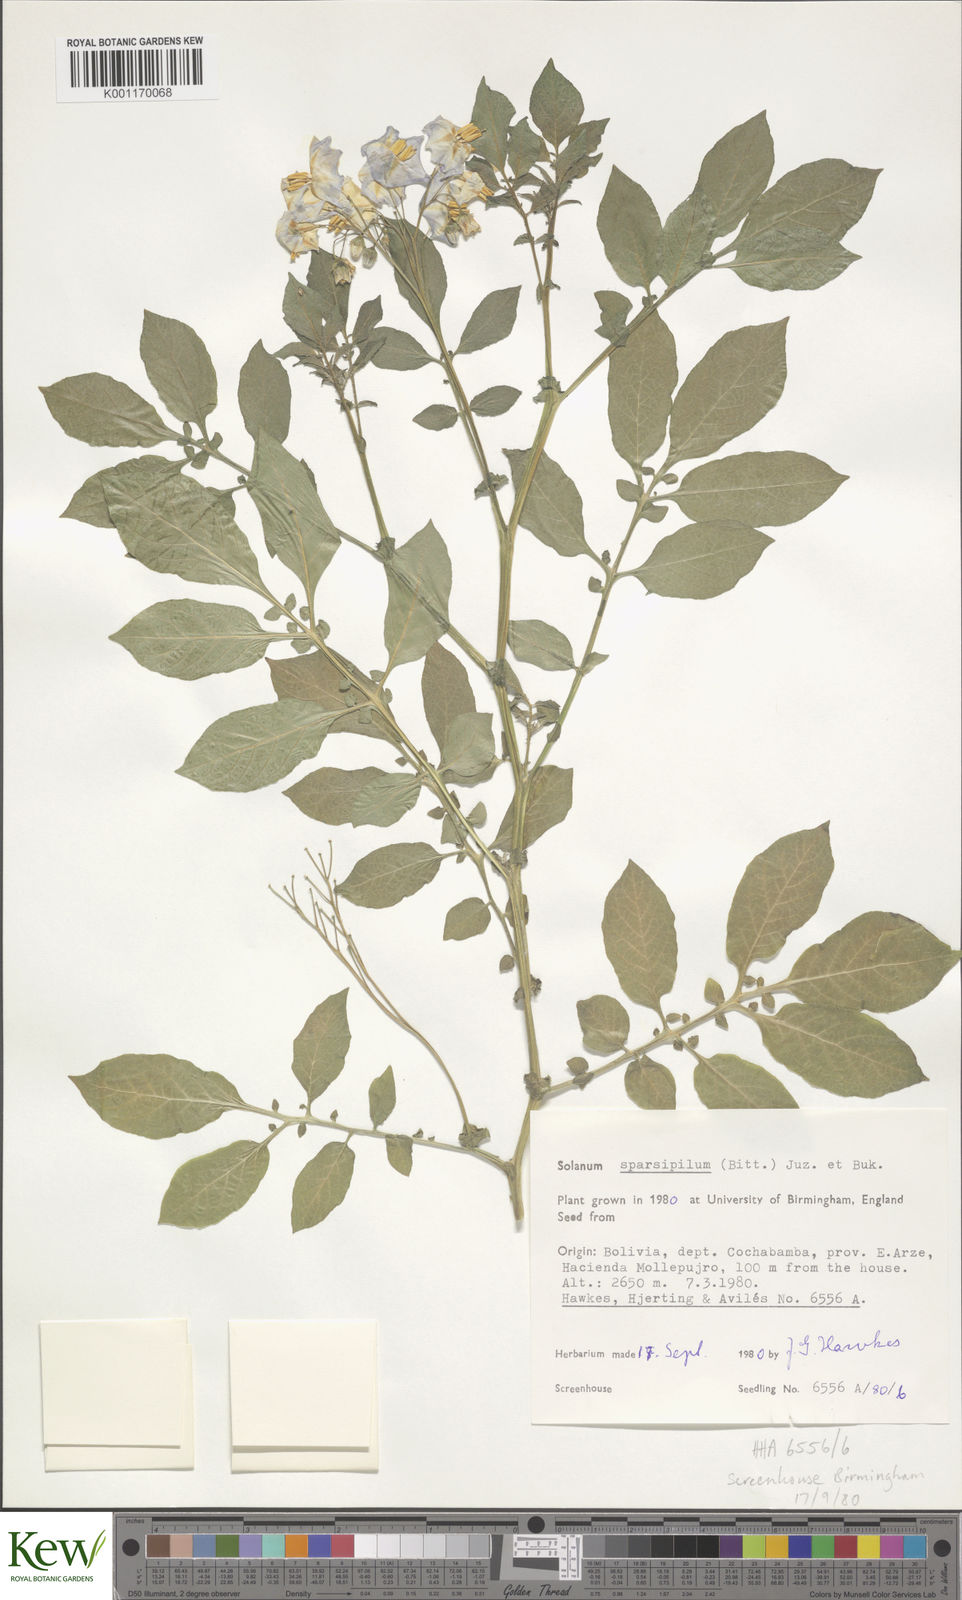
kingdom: Plantae
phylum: Tracheophyta
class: Magnoliopsida
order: Solanales
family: Solanaceae
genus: Solanum
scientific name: Solanum brevicaule
